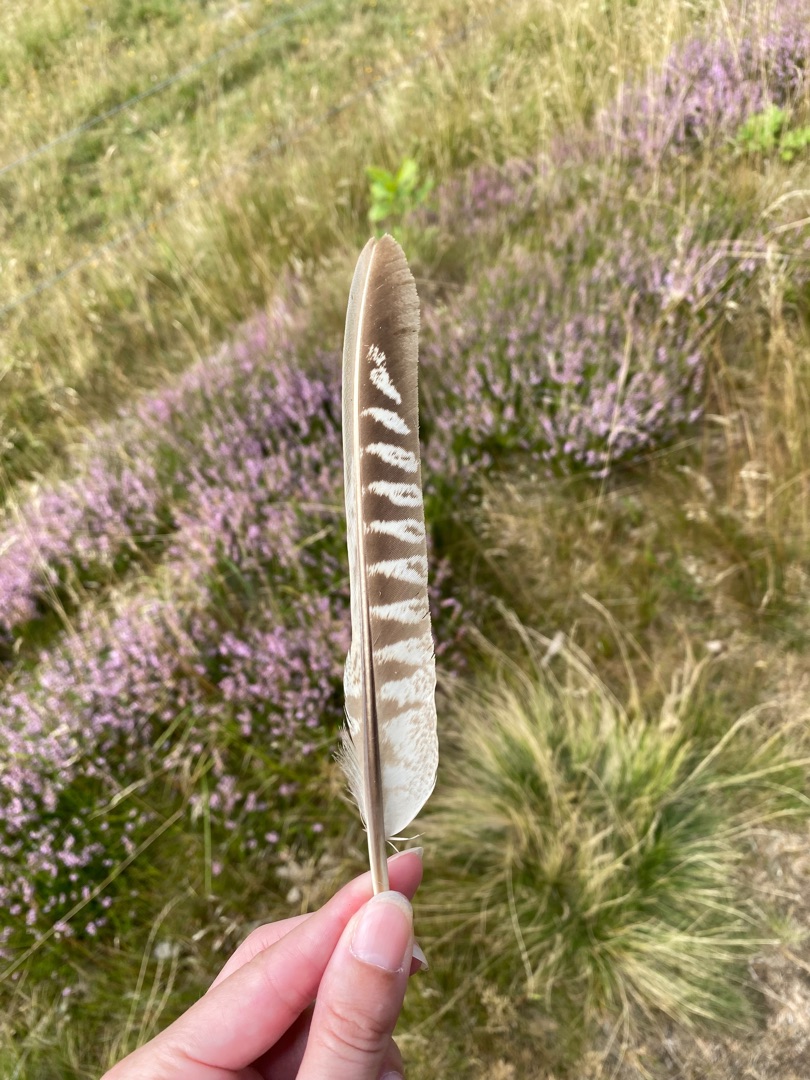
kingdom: Animalia
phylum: Chordata
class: Aves
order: Galliformes
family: Phasianidae
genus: Phasianus
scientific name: Phasianus colchicus
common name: Fasan
